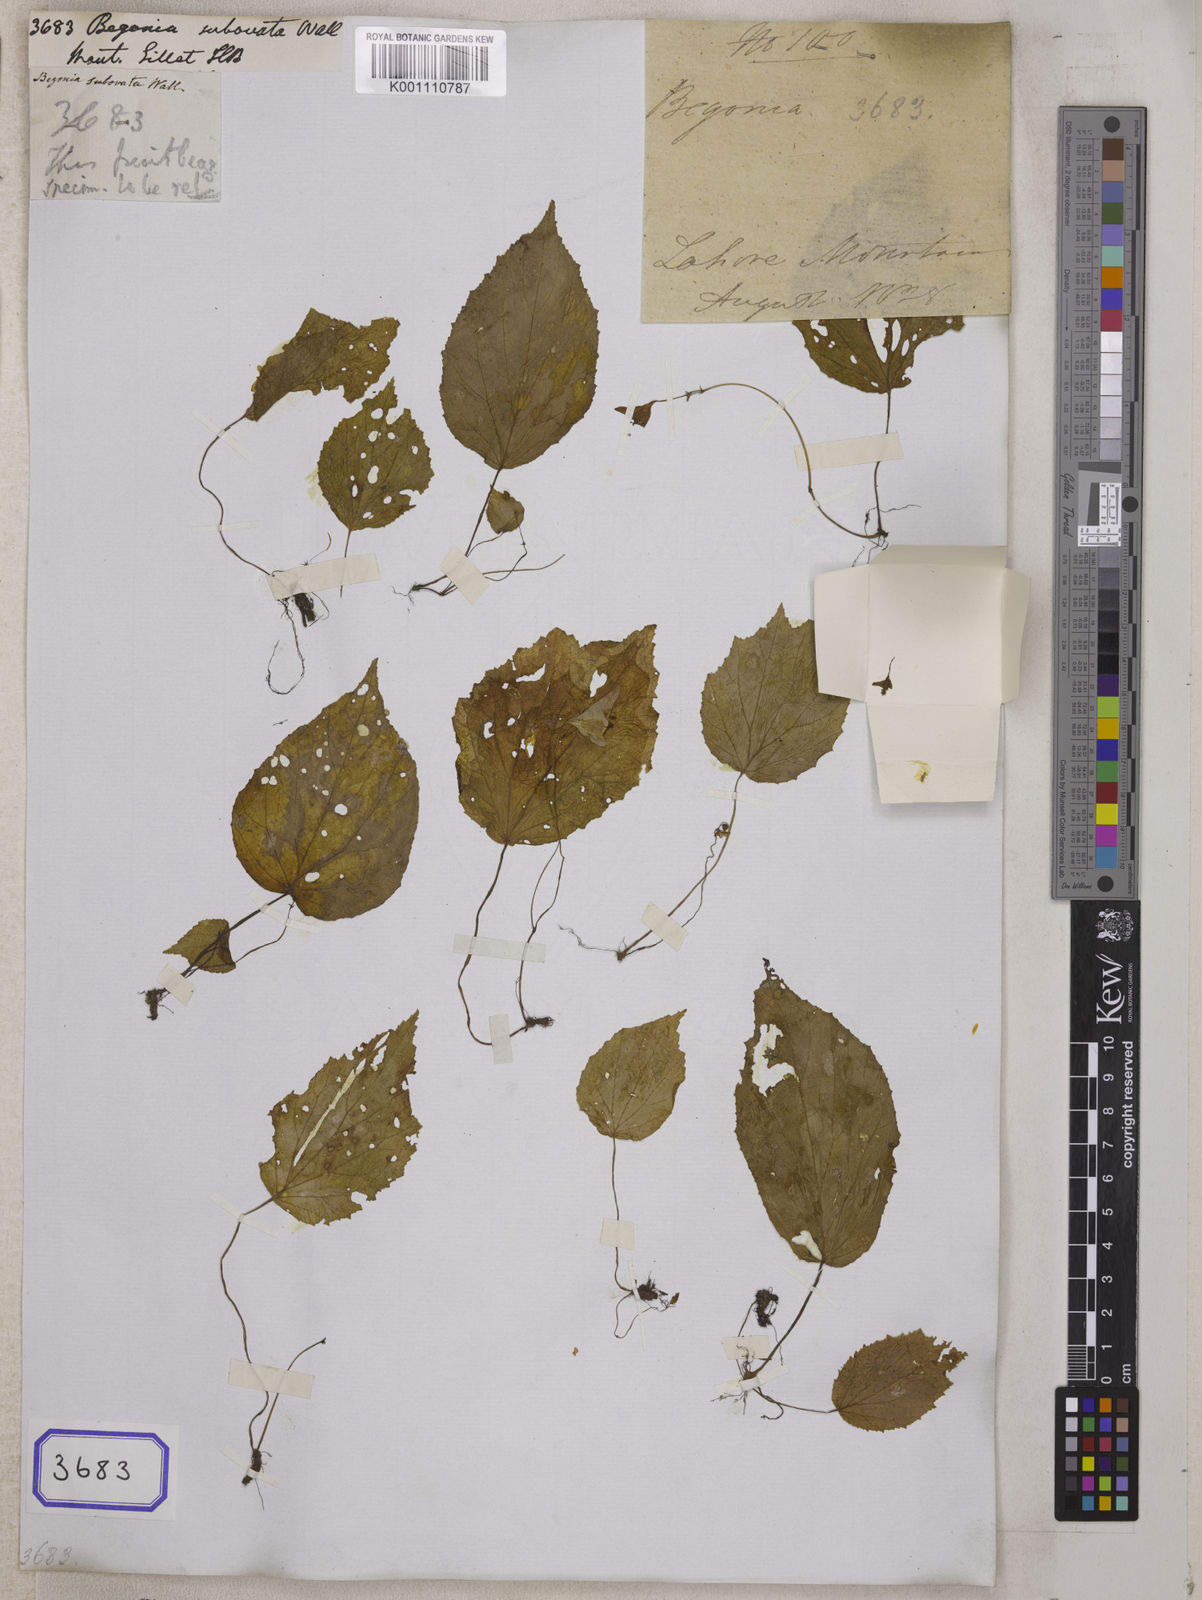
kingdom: Plantae
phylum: Tracheophyta
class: Magnoliopsida
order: Cucurbitales
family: Begoniaceae
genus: Begonia
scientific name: Begonia ovatifolia
